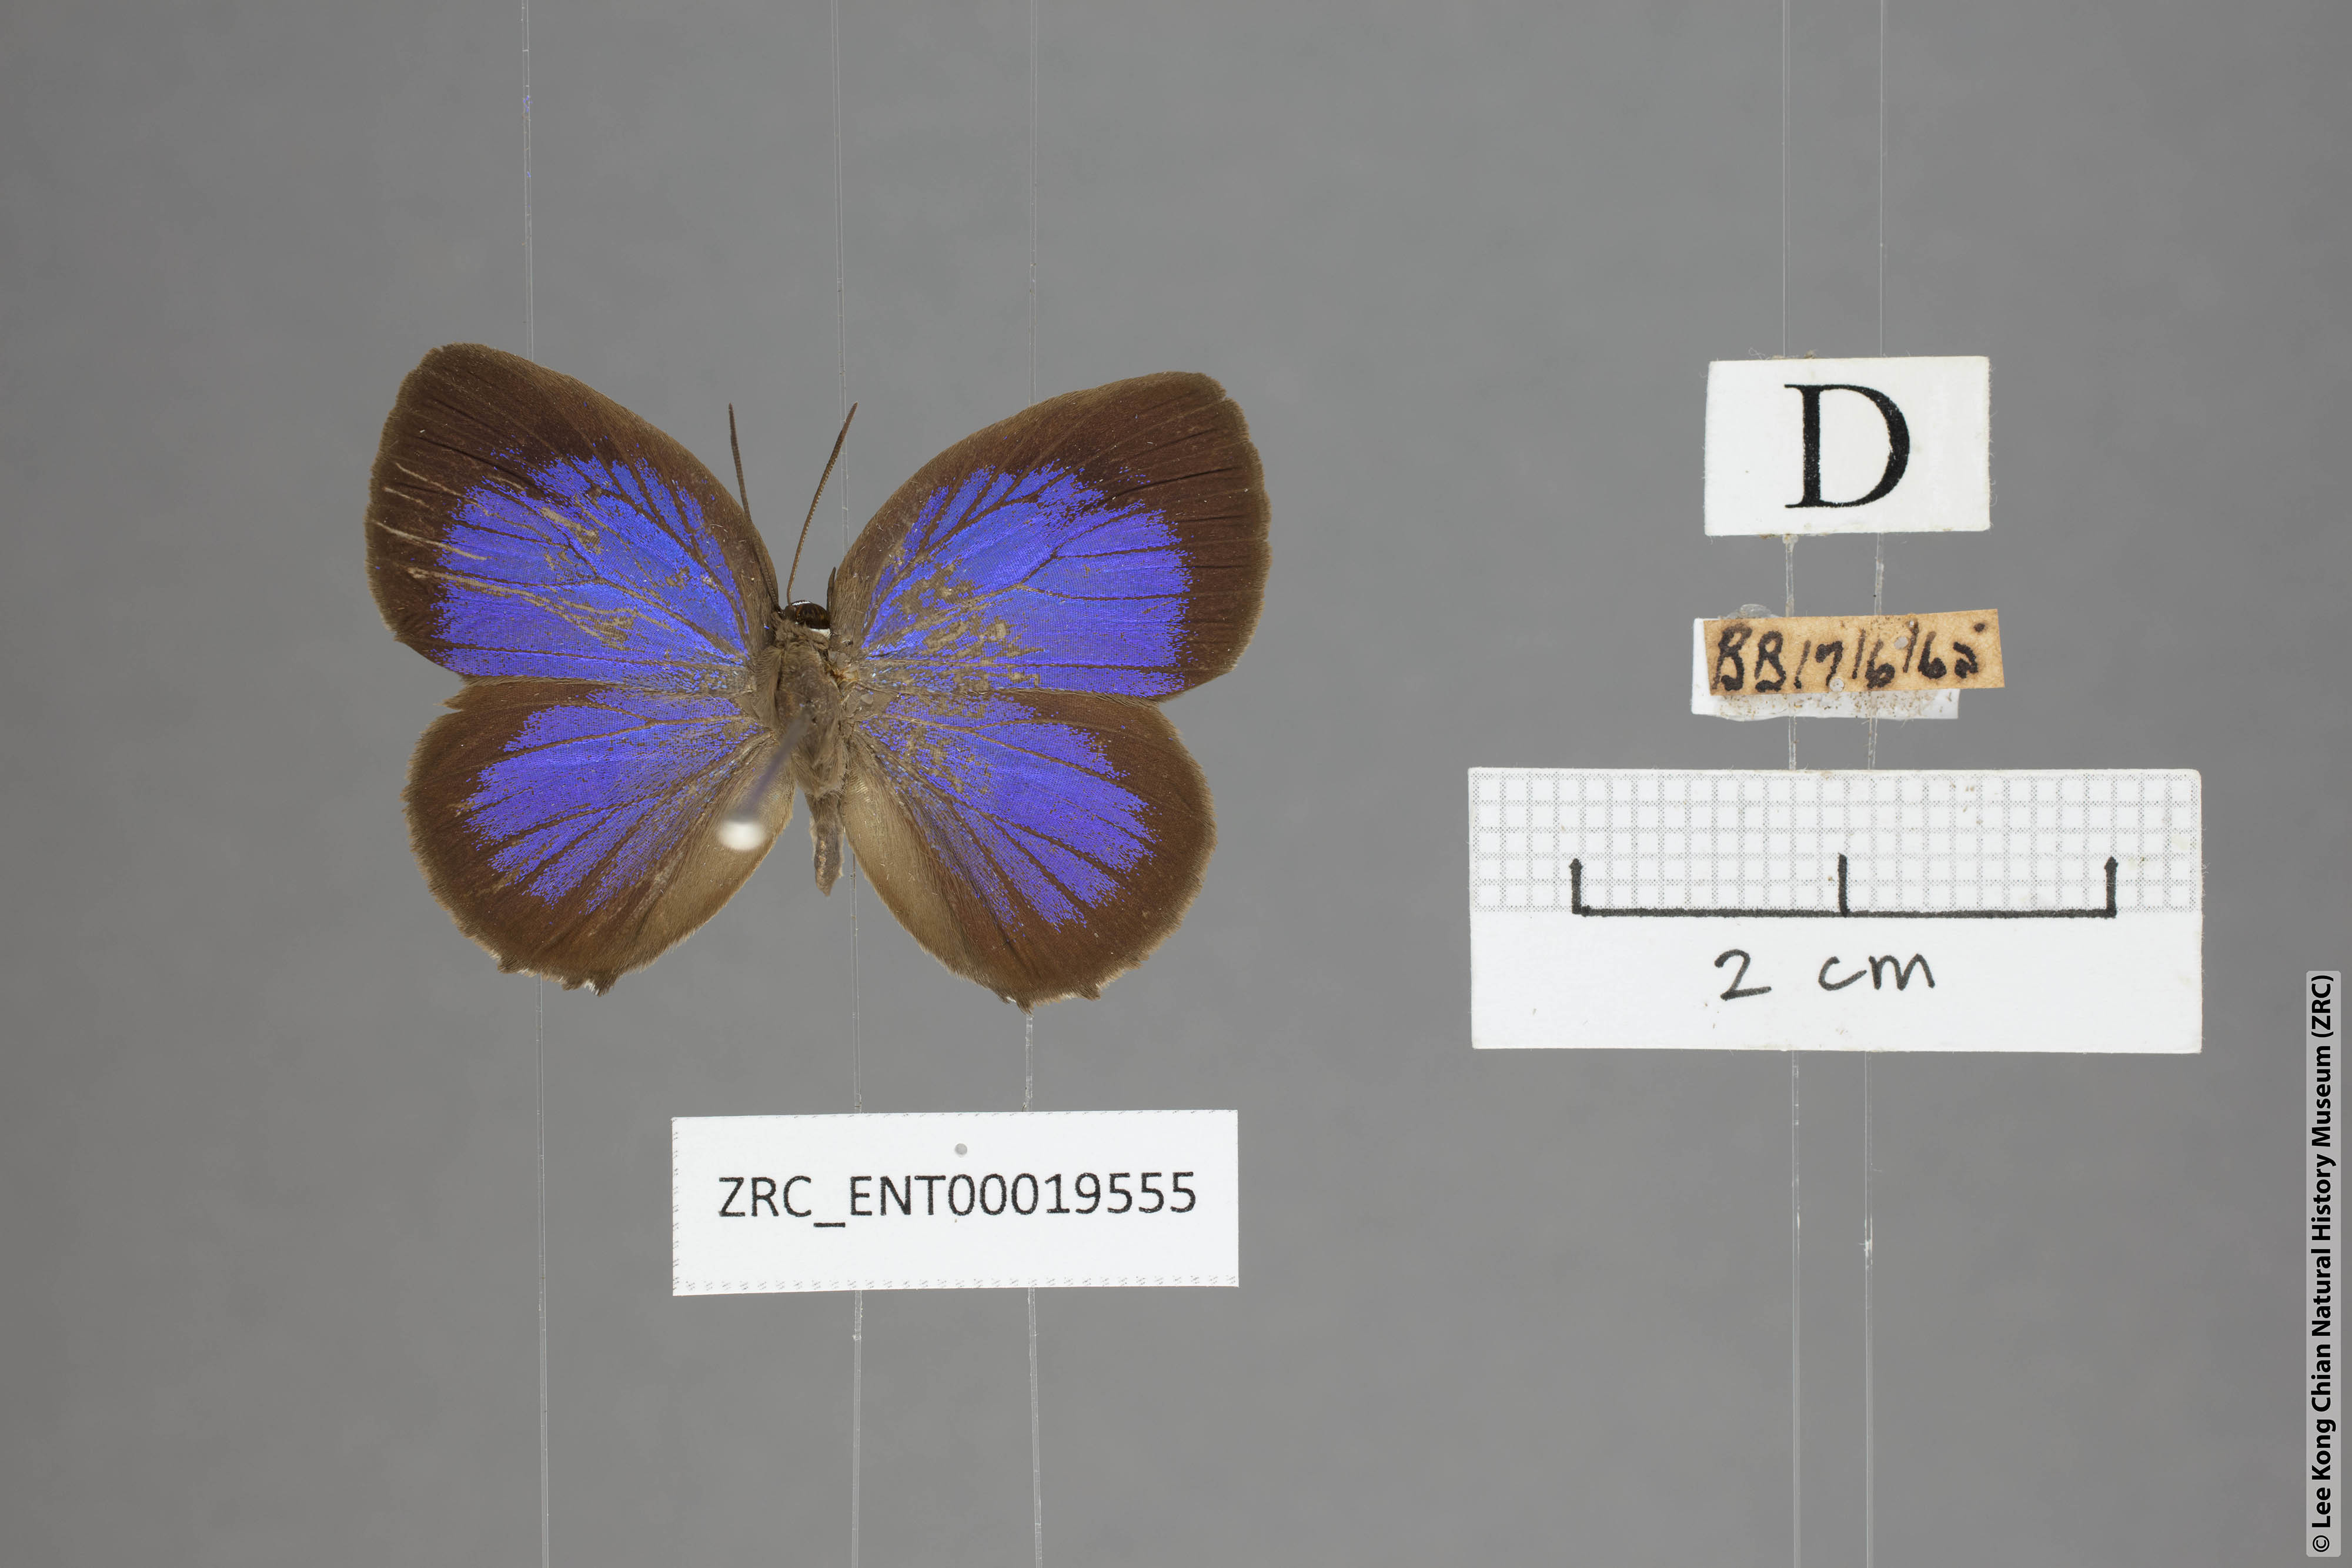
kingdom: Animalia
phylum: Arthropoda
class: Insecta
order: Lepidoptera
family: Lycaenidae
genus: Arhopala
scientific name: Arhopala hypomuta
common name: Violet oakblue
